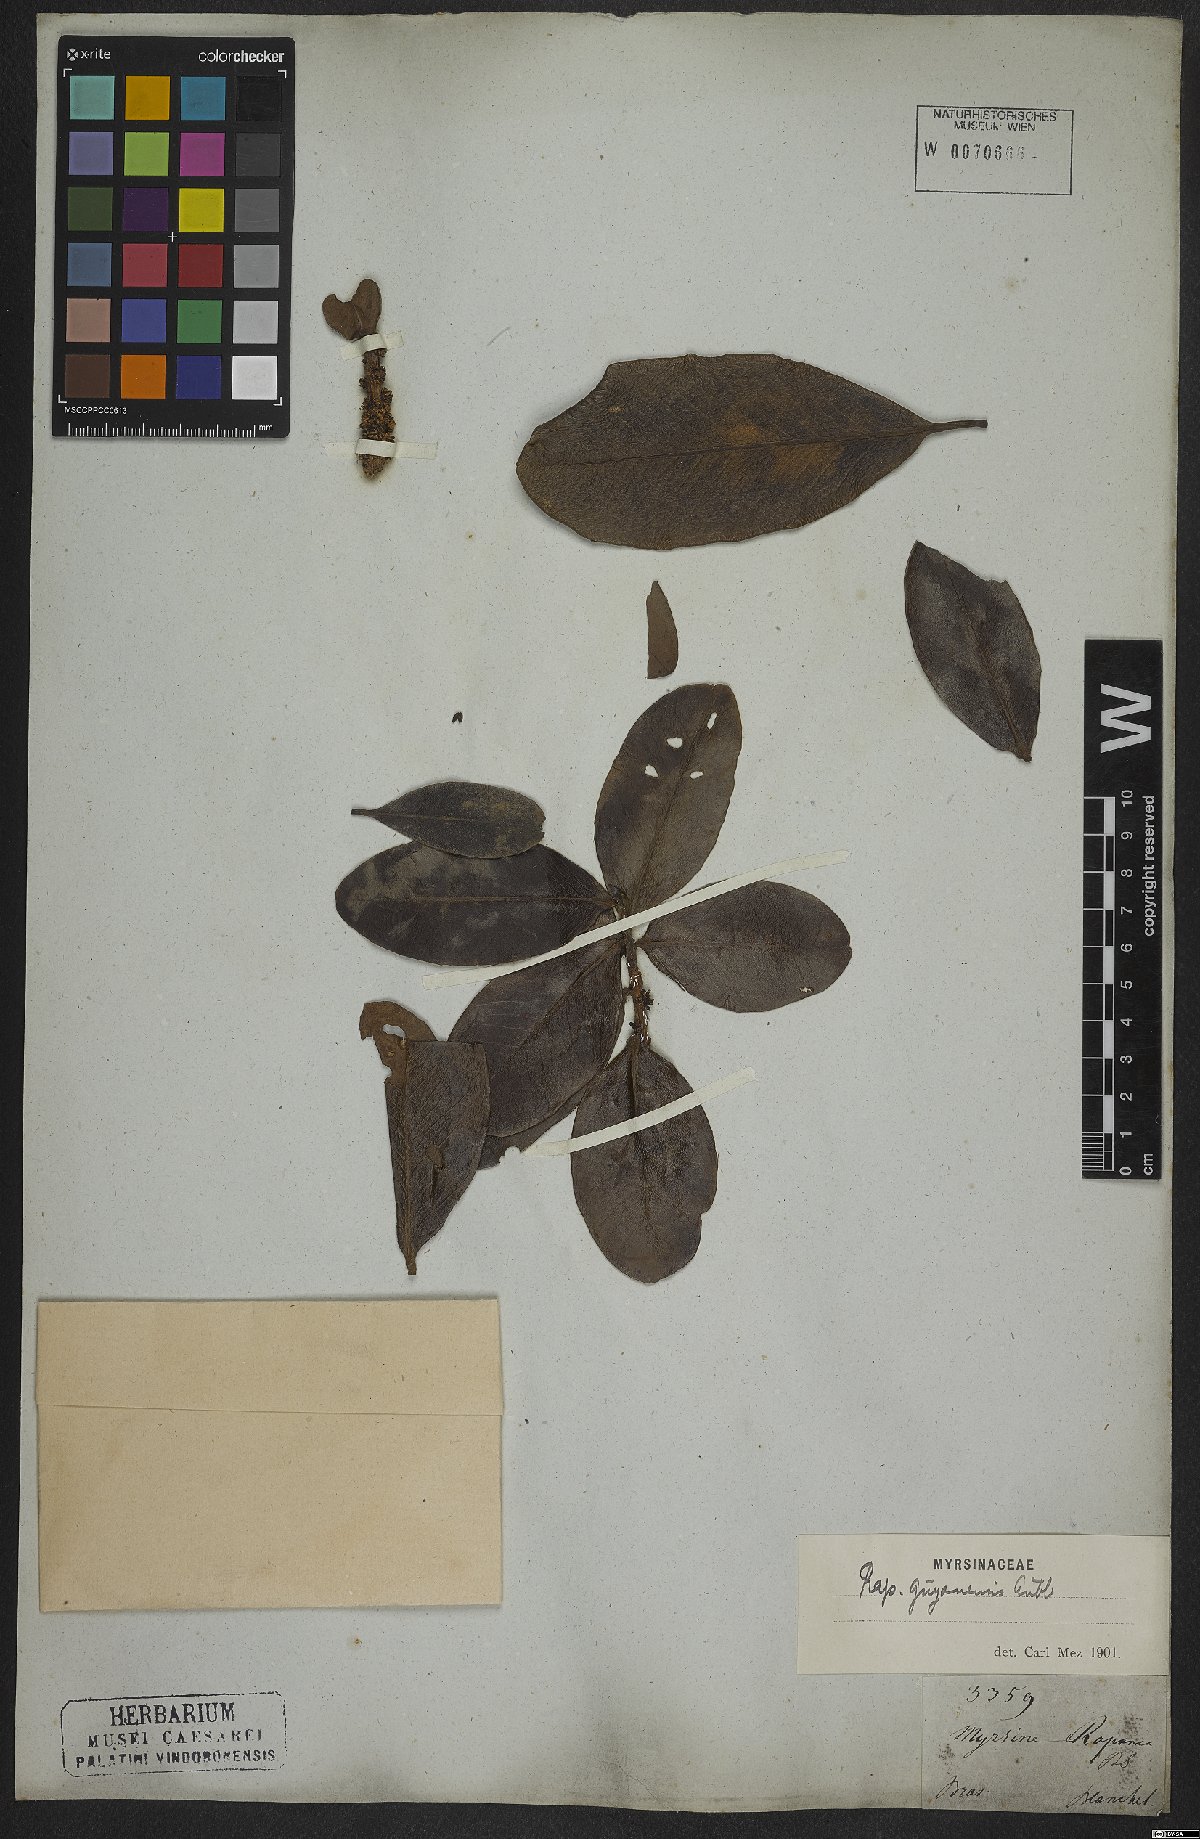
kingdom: Plantae
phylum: Tracheophyta
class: Magnoliopsida
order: Ericales
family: Primulaceae
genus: Myrsine
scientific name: Myrsine guianensis
